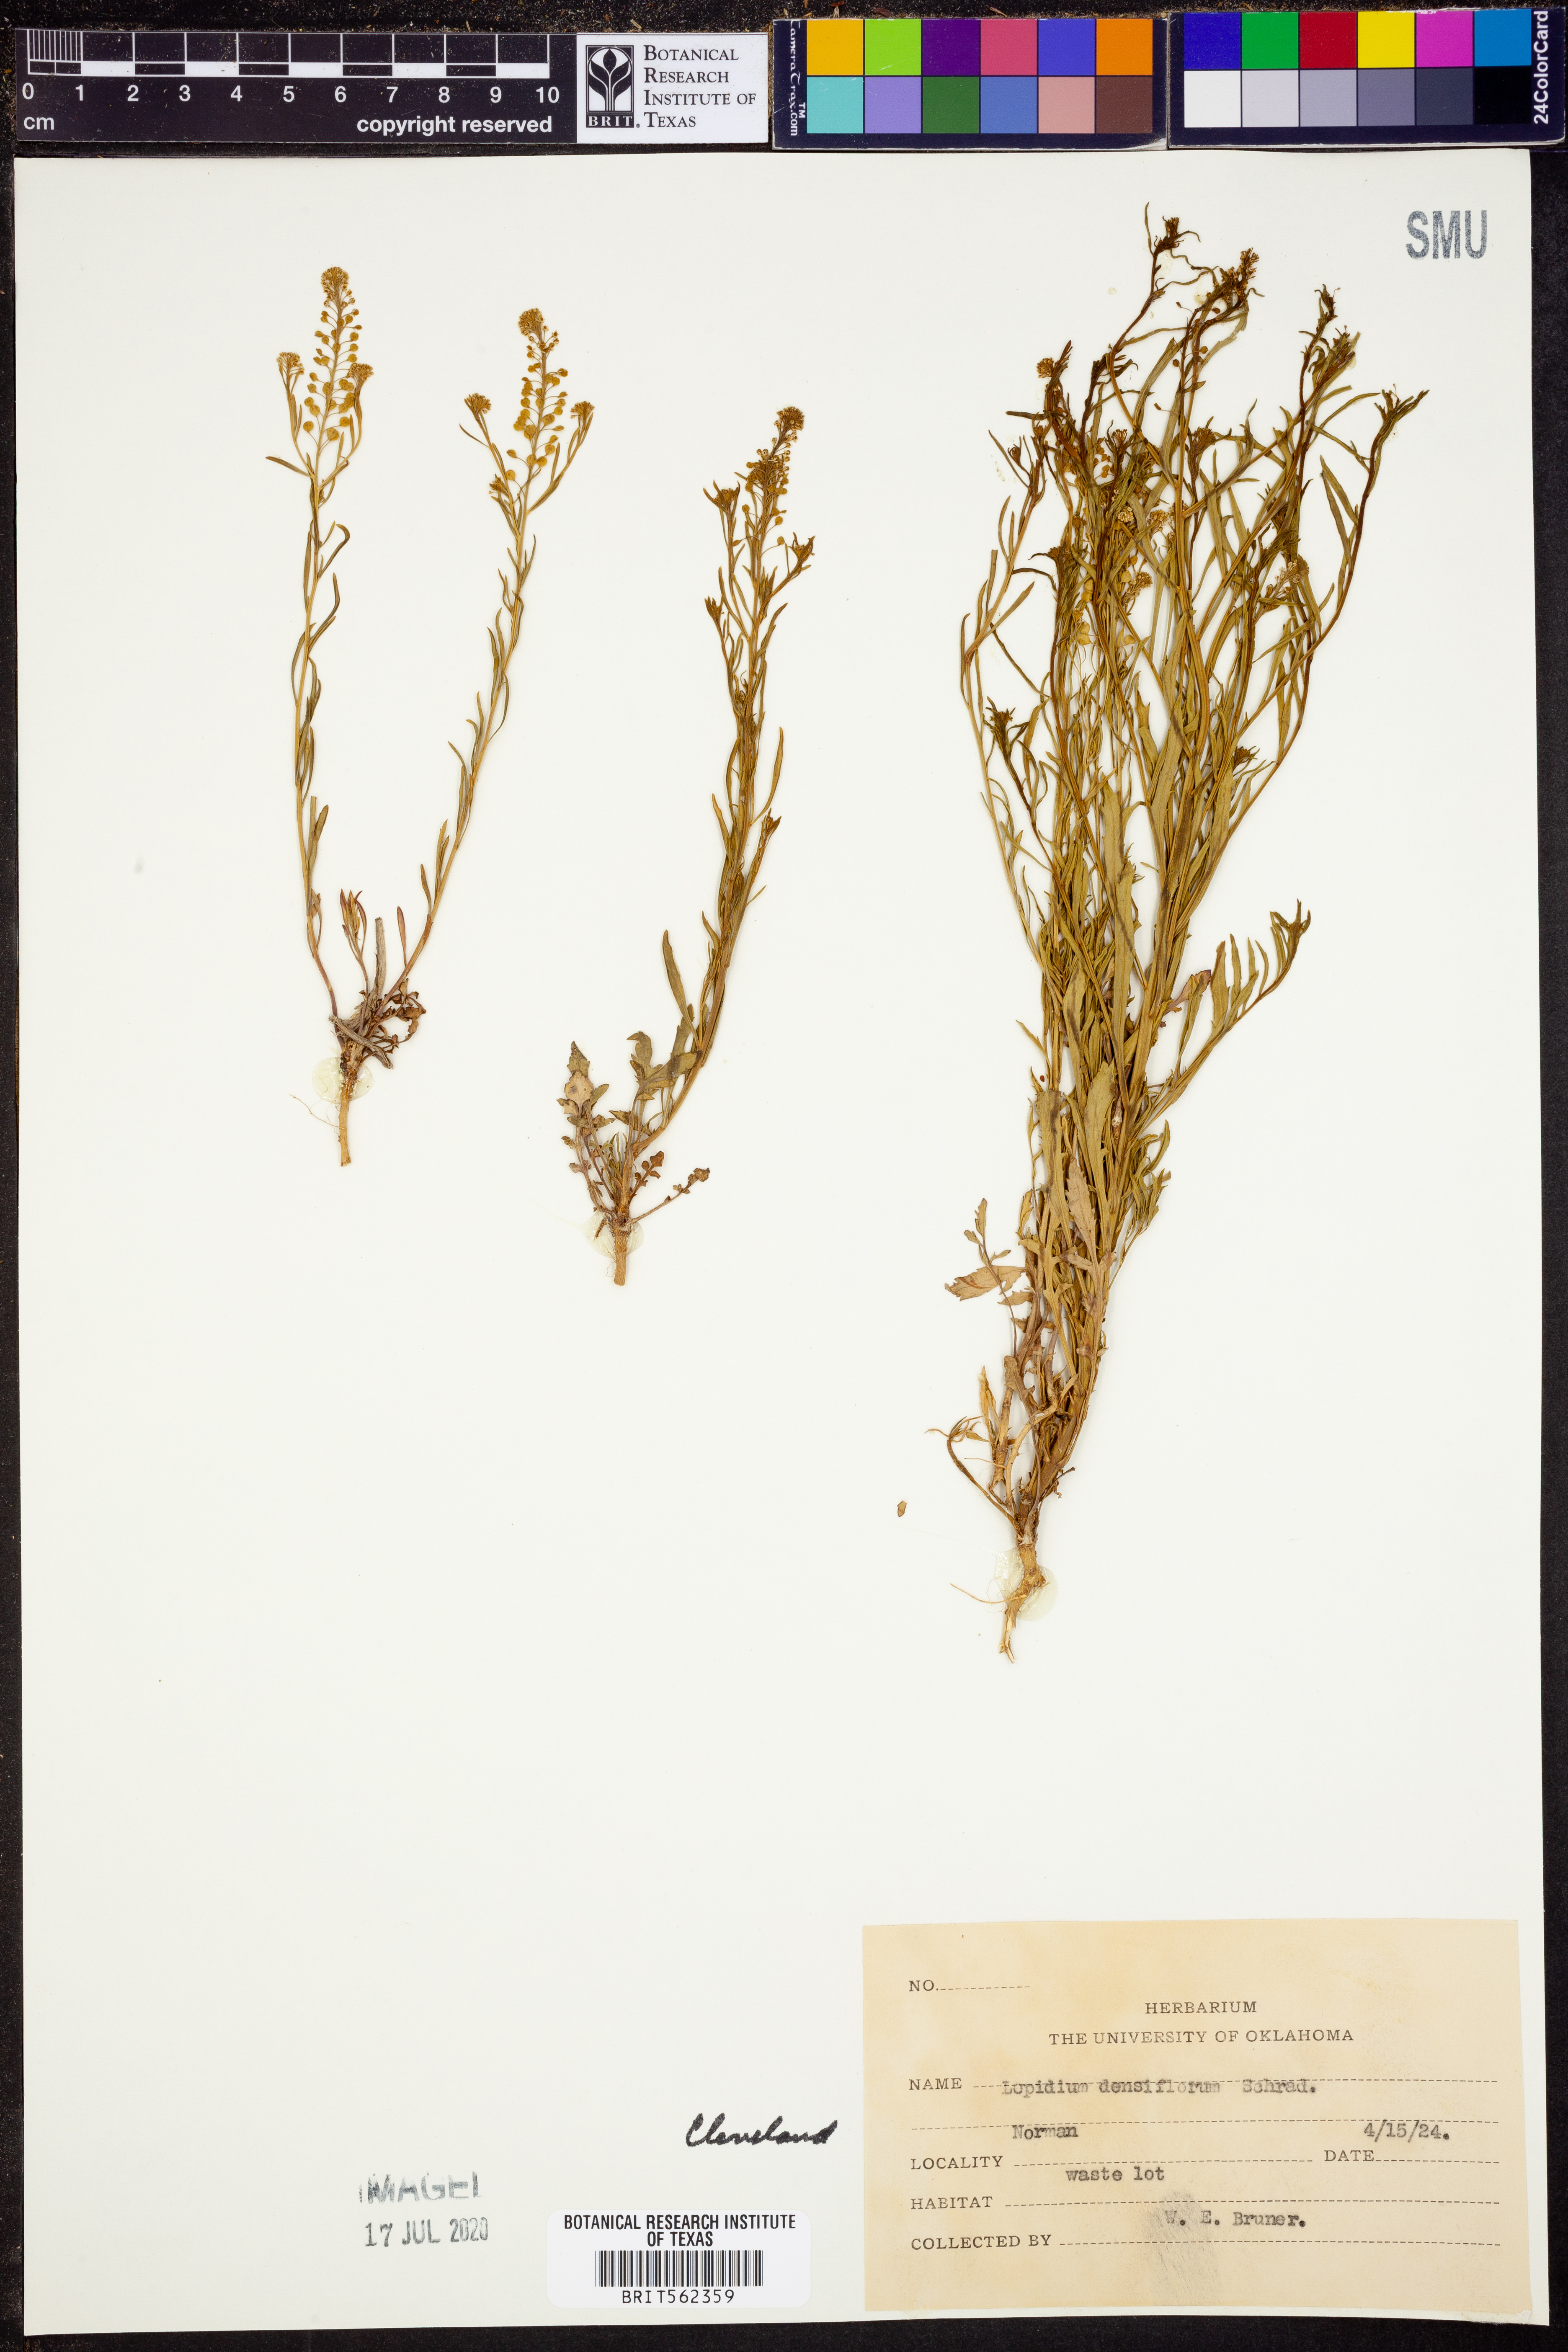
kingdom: Plantae
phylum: Tracheophyta
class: Magnoliopsida
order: Brassicales
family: Brassicaceae
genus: Lepidium
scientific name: Lepidium densiflorum
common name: Miner's pepperwort
